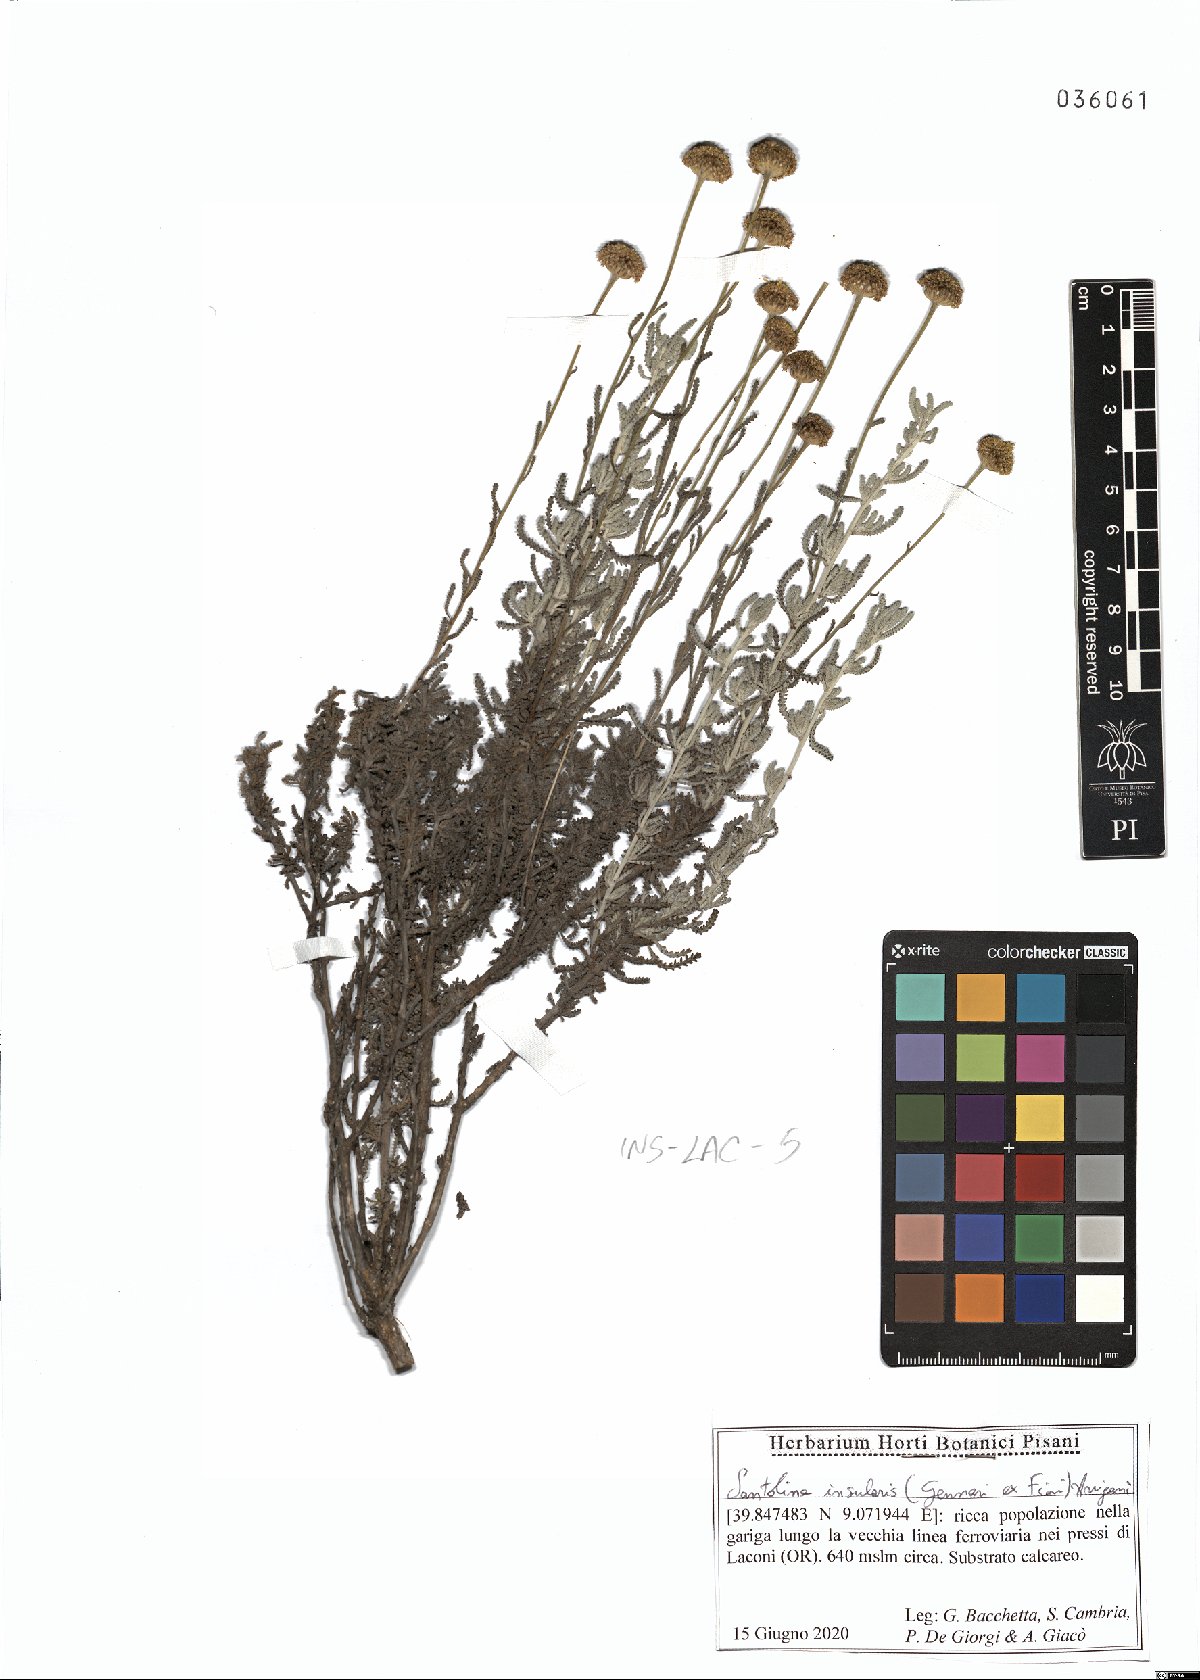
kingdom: Plantae
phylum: Tracheophyta
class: Magnoliopsida
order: Asterales
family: Asteraceae
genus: Santolina
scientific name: Santolina insularis
